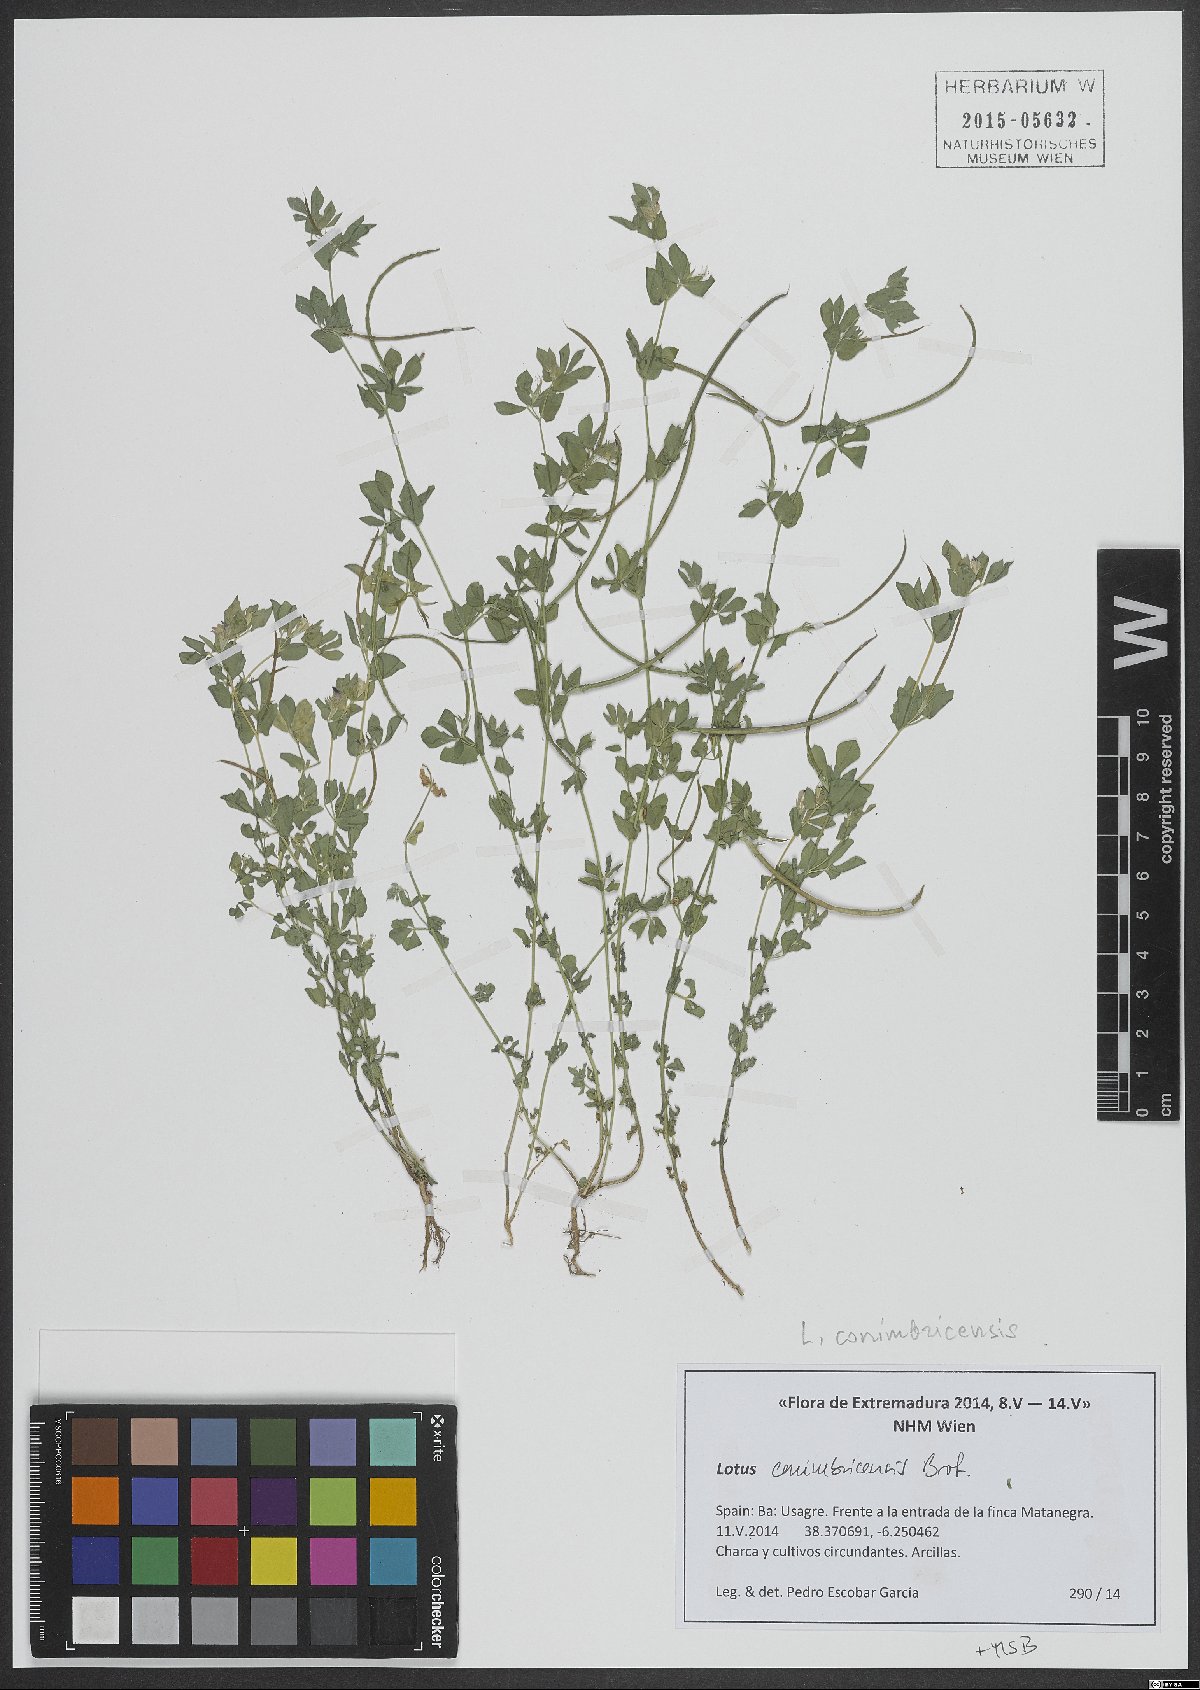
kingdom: Plantae
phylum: Tracheophyta
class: Magnoliopsida
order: Fabales
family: Fabaceae
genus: Lotus
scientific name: Lotus conimbricensis
